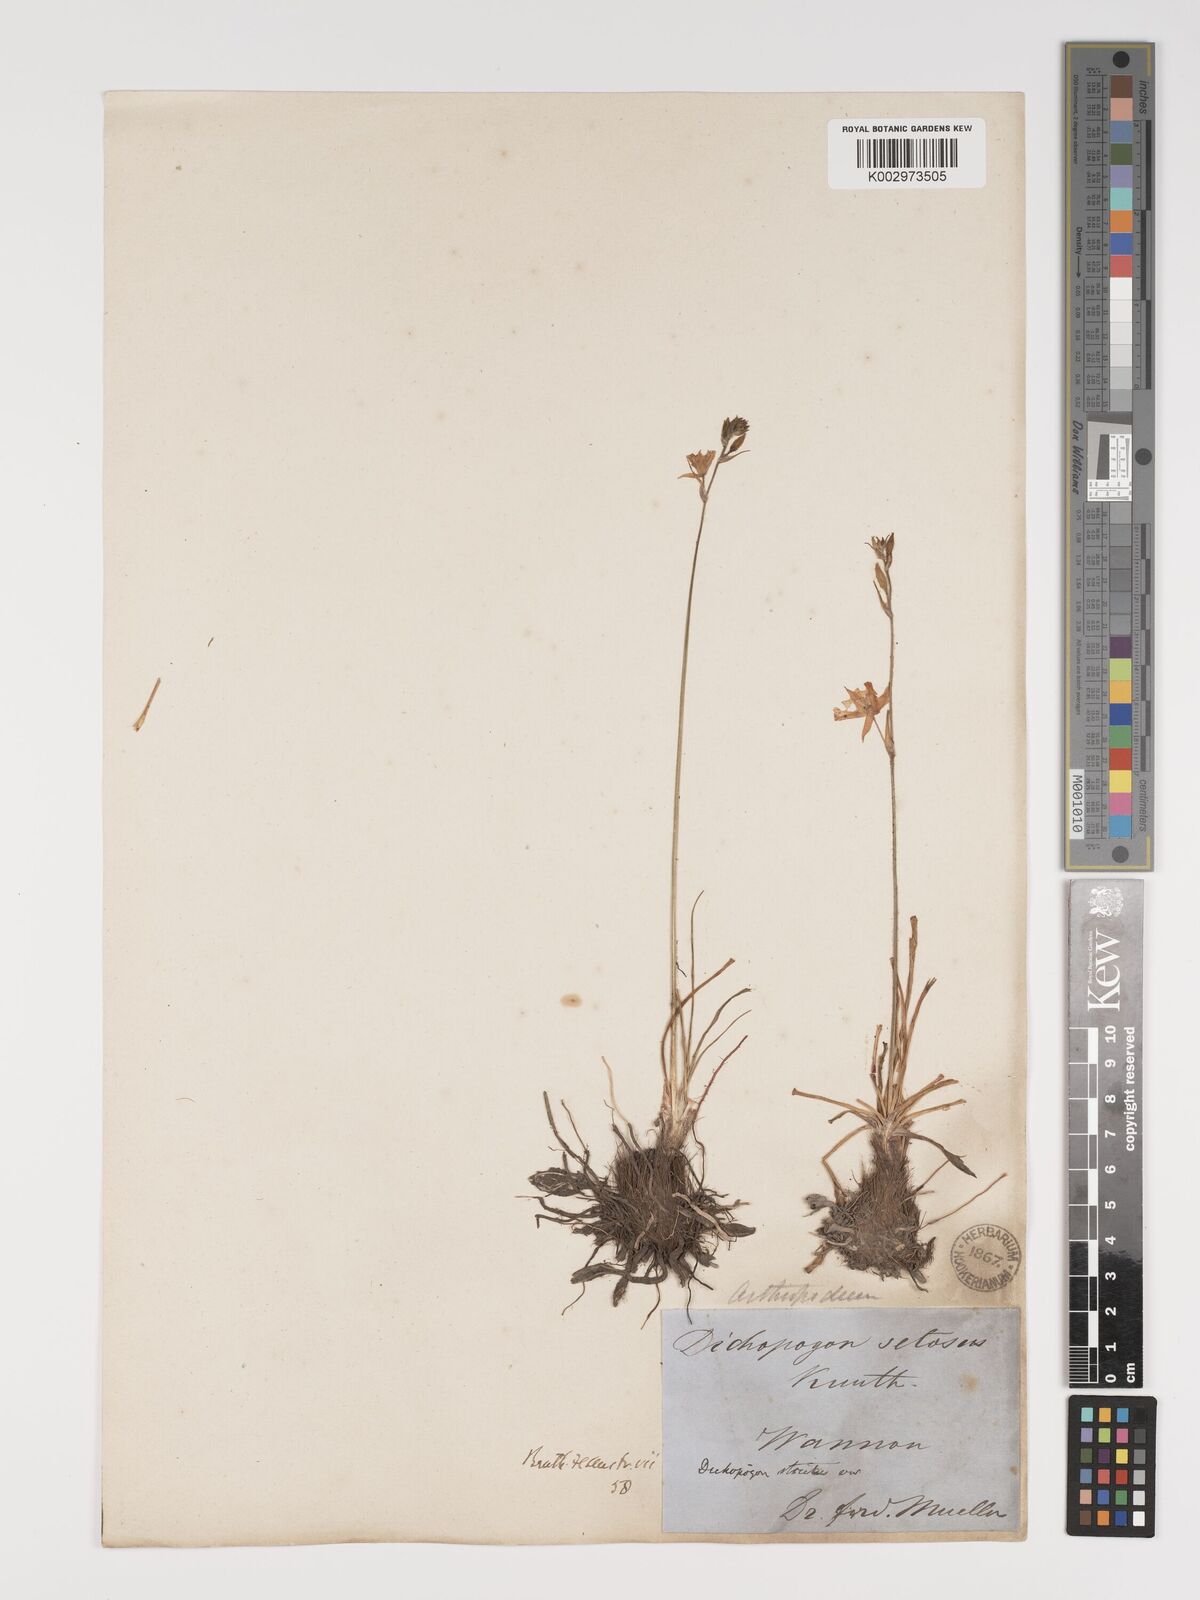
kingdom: Plantae
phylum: Tracheophyta
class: Liliopsida
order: Asparagales
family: Asparagaceae
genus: Arthropodium
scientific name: Arthropodium strictum
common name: Chocolate-lily
